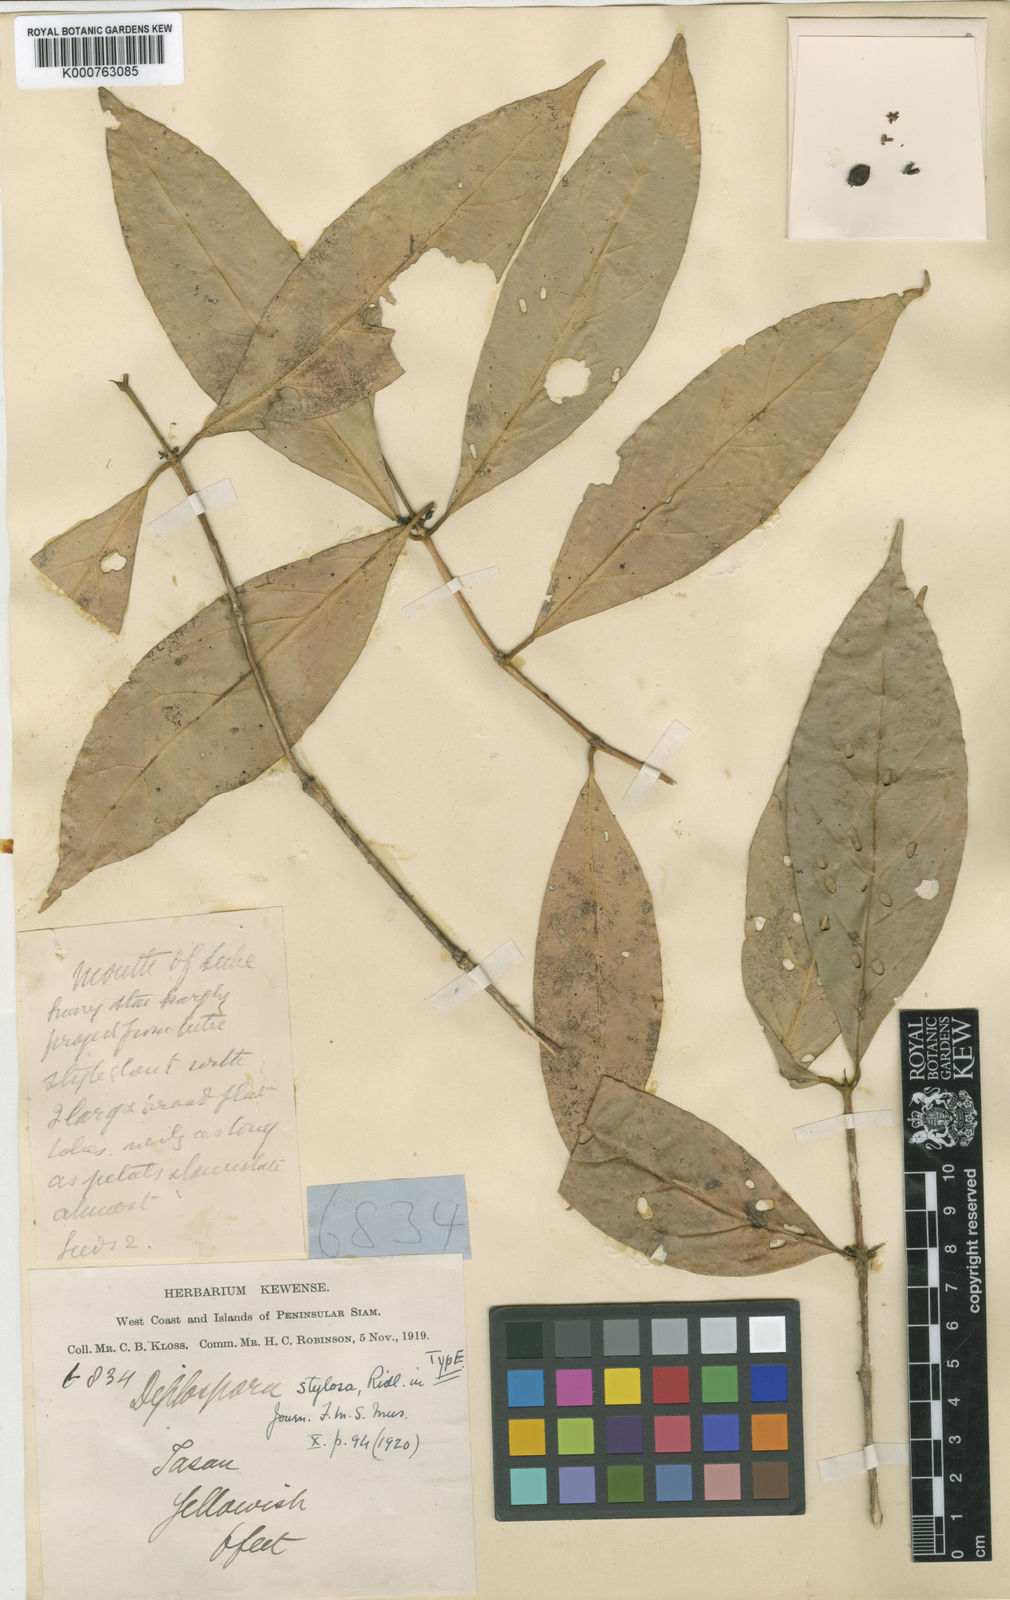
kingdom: Plantae
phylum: Tracheophyta
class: Magnoliopsida
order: Gentianales
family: Rubiaceae
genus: Diplospora
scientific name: Diplospora stylosa
